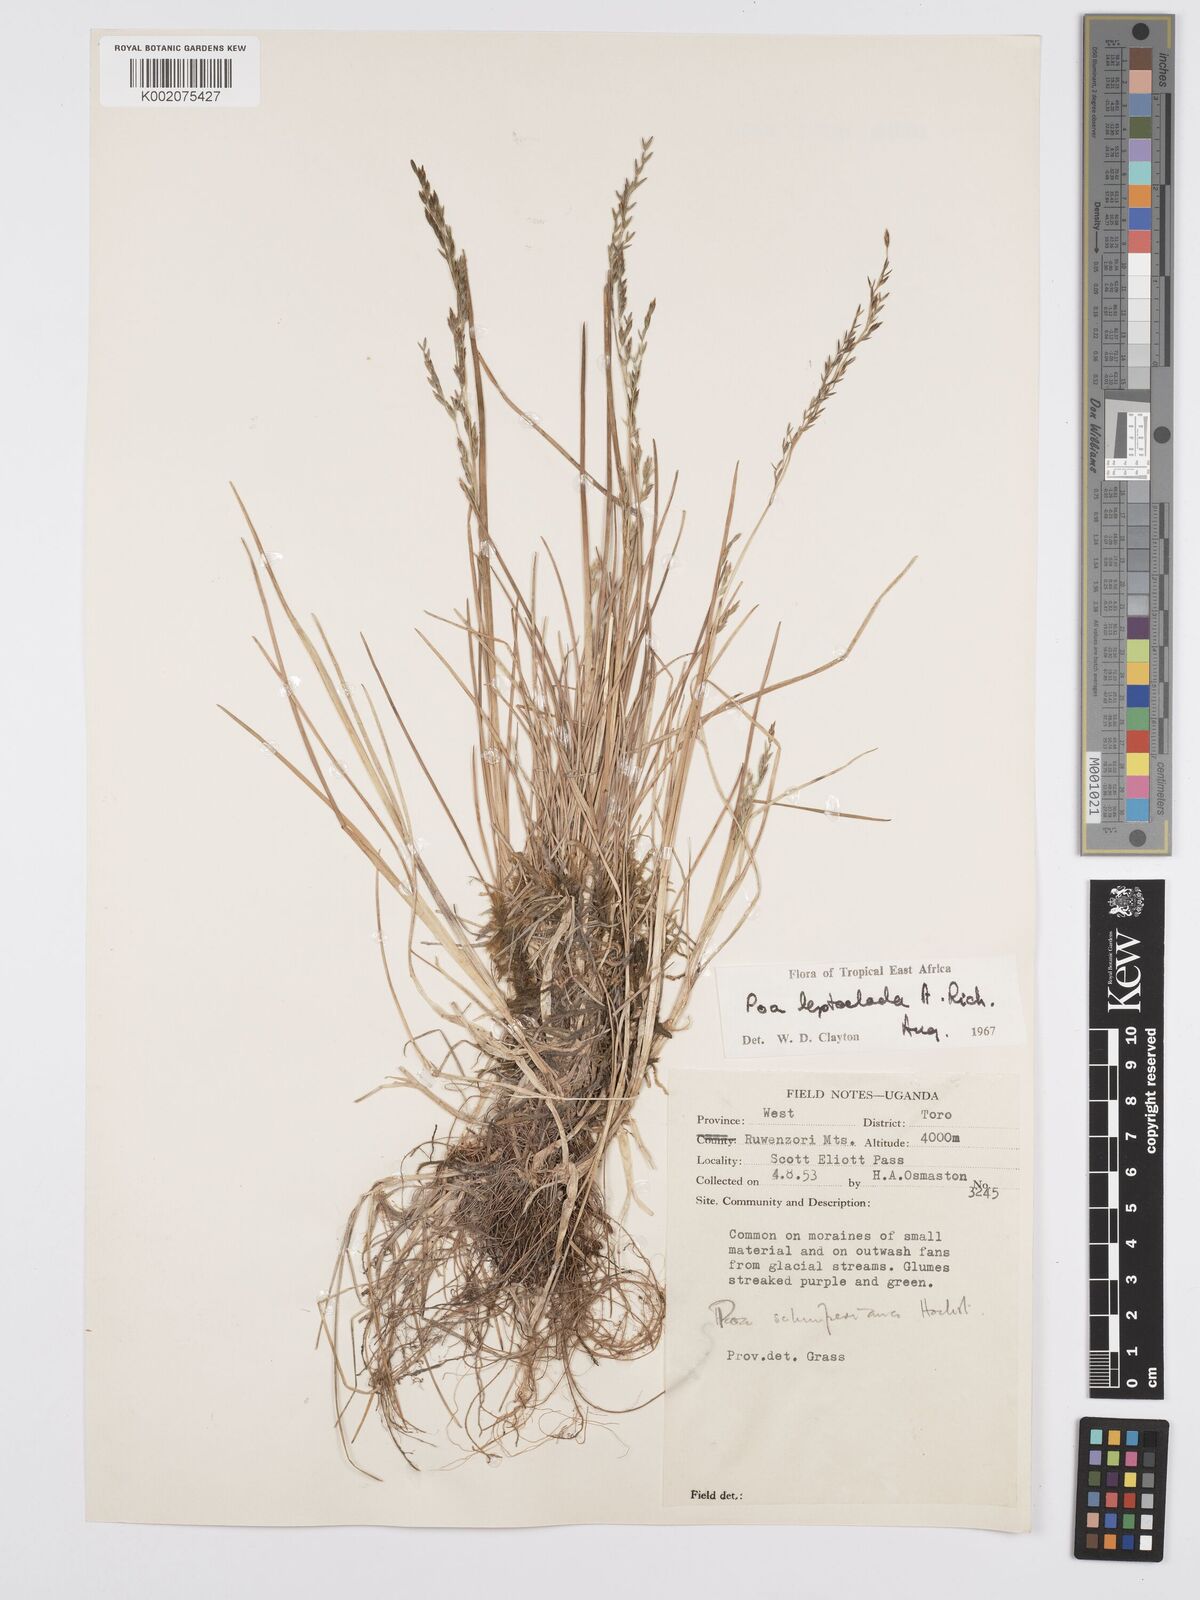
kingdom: Plantae
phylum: Tracheophyta
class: Liliopsida
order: Poales
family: Poaceae
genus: Poa
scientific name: Poa
